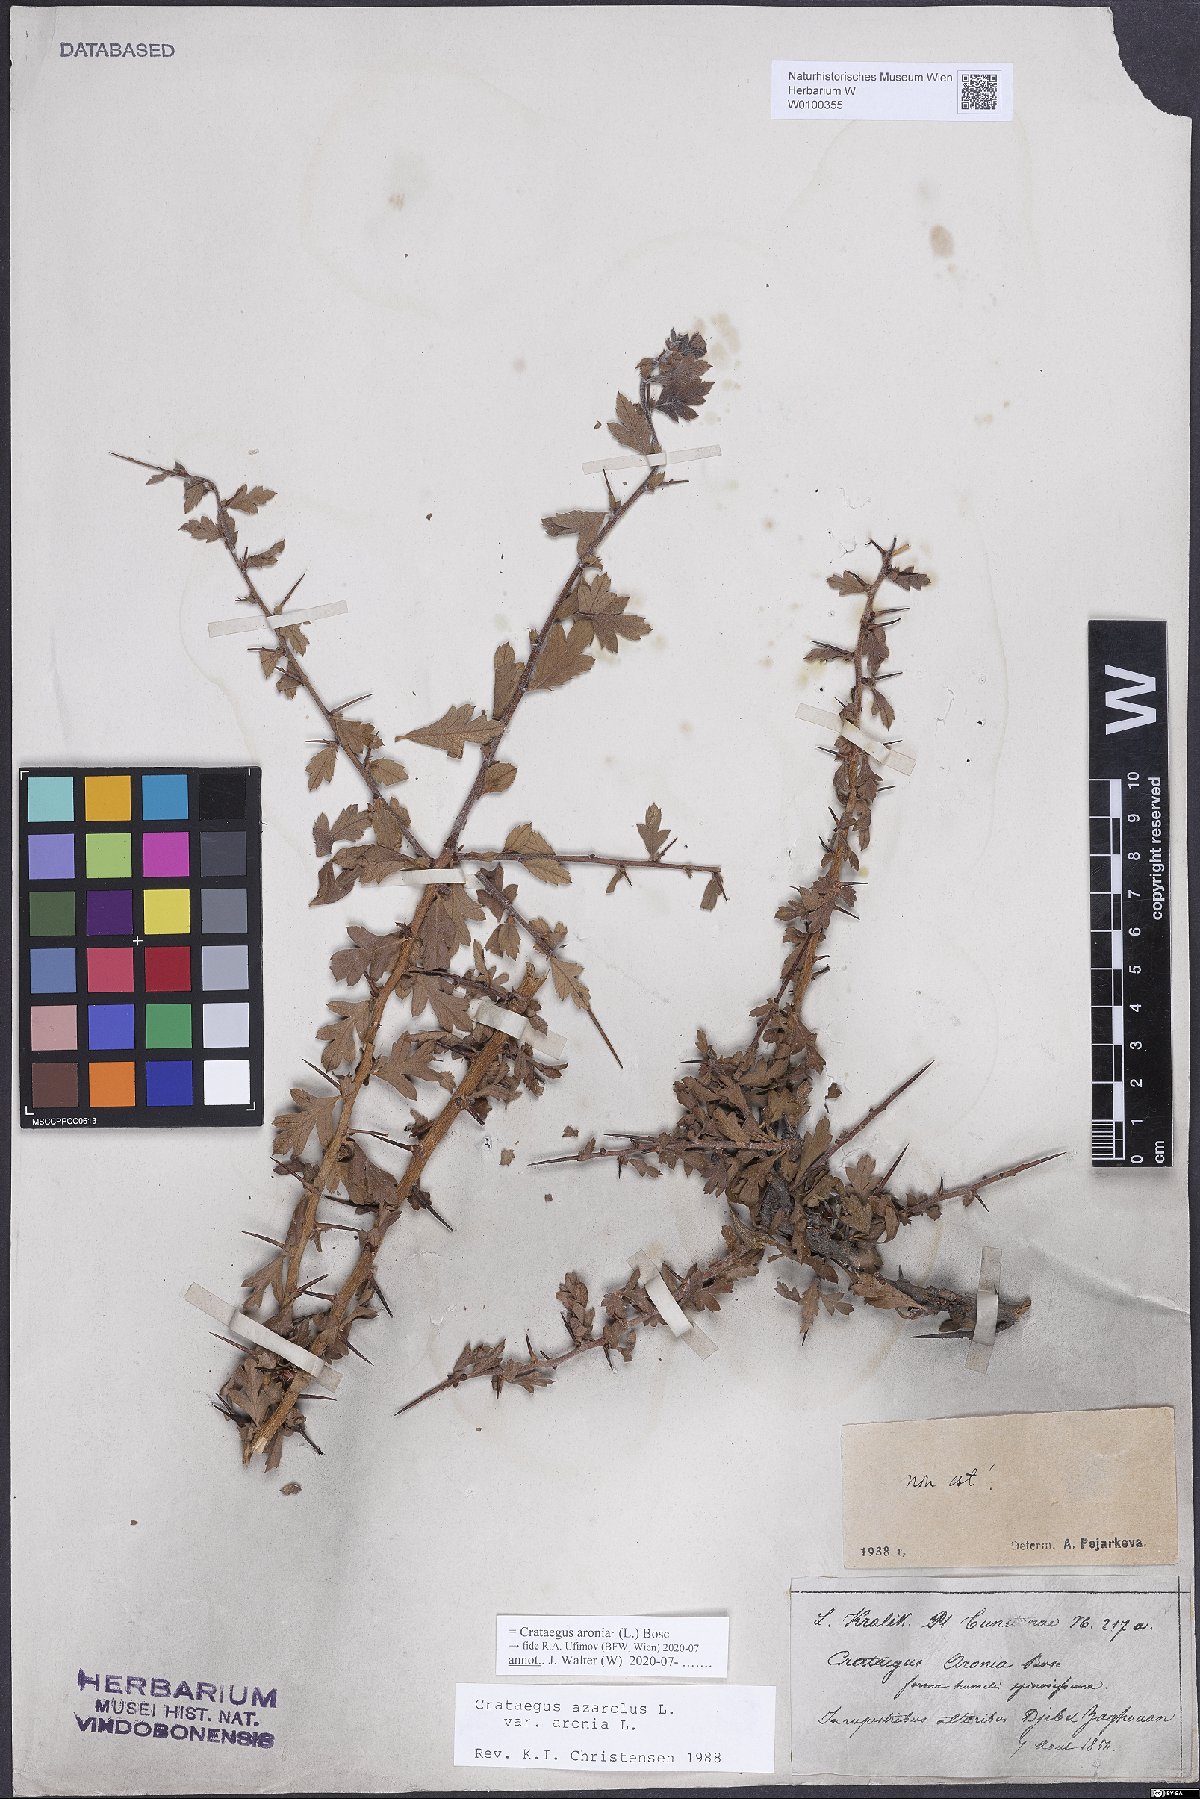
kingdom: Plantae
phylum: Tracheophyta
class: Magnoliopsida
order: Rosales
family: Rosaceae
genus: Crataegus
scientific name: Crataegus azarolus
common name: Azarole
